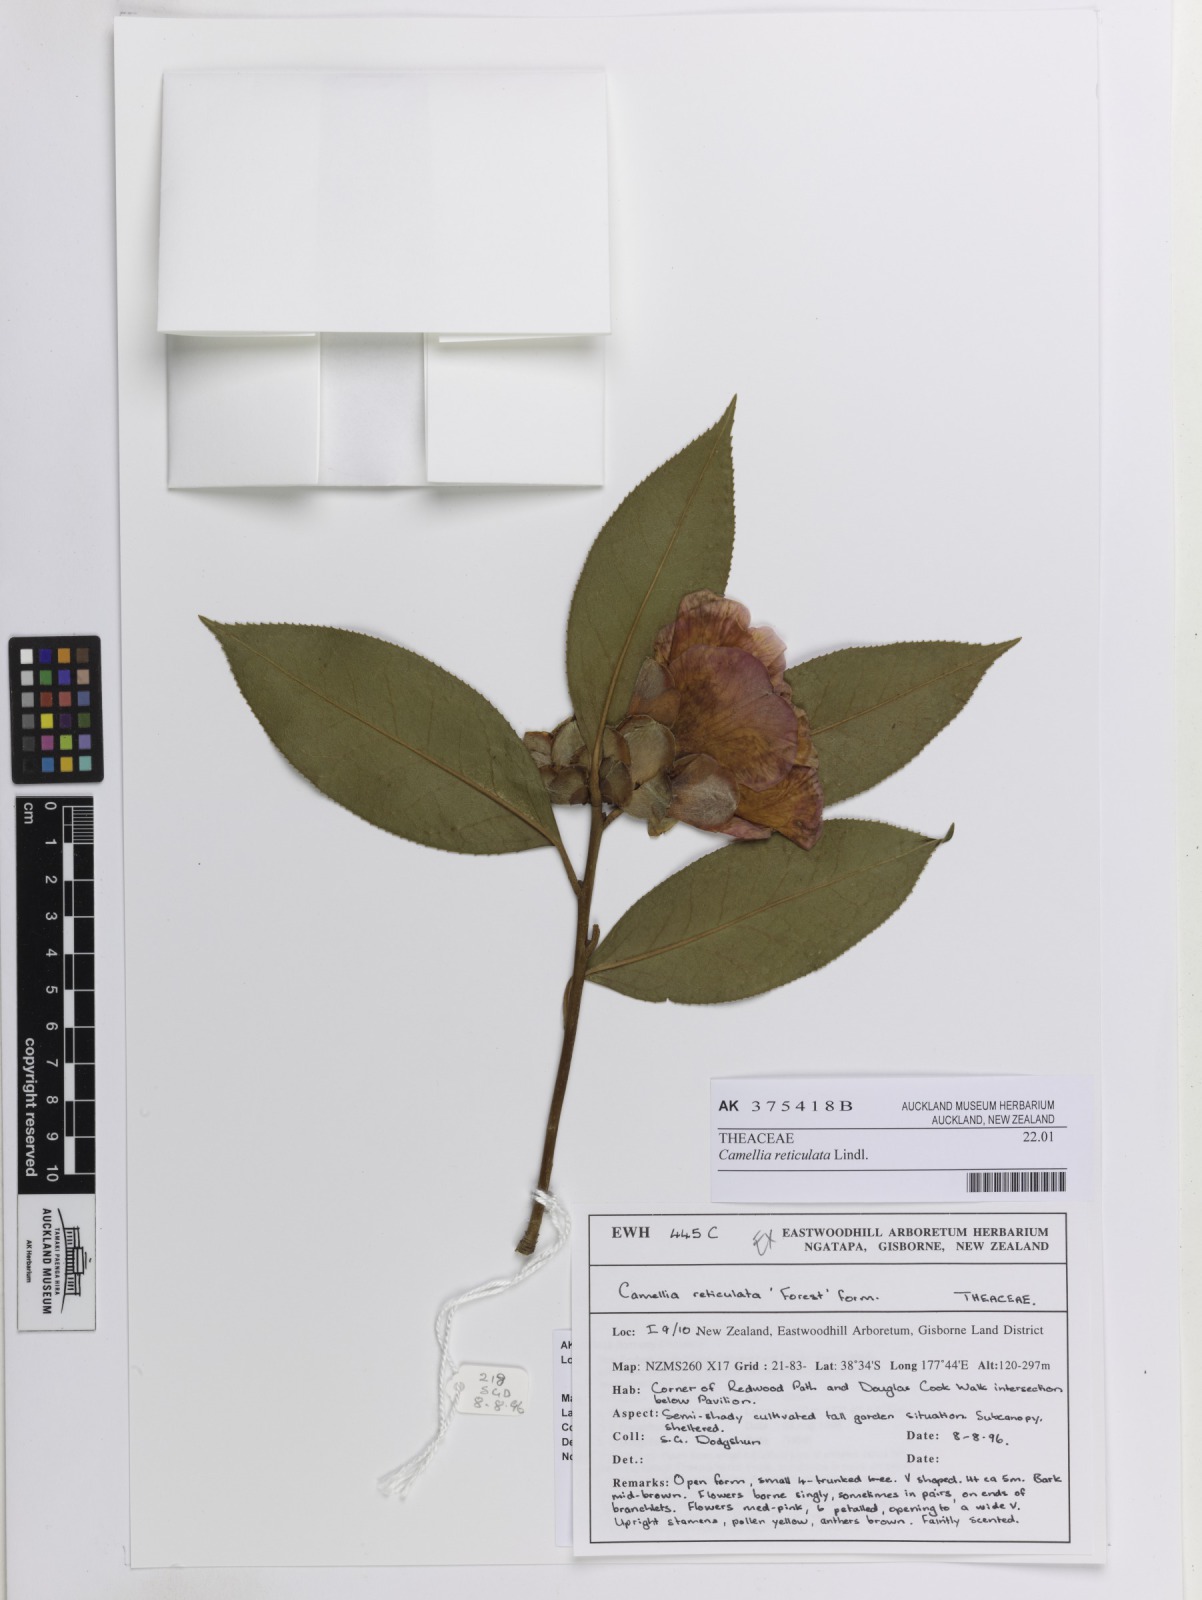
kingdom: Plantae
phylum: Tracheophyta
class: Magnoliopsida
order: Ericales
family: Theaceae
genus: Camellia
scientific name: Camellia reticulata
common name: To-tsubaki
